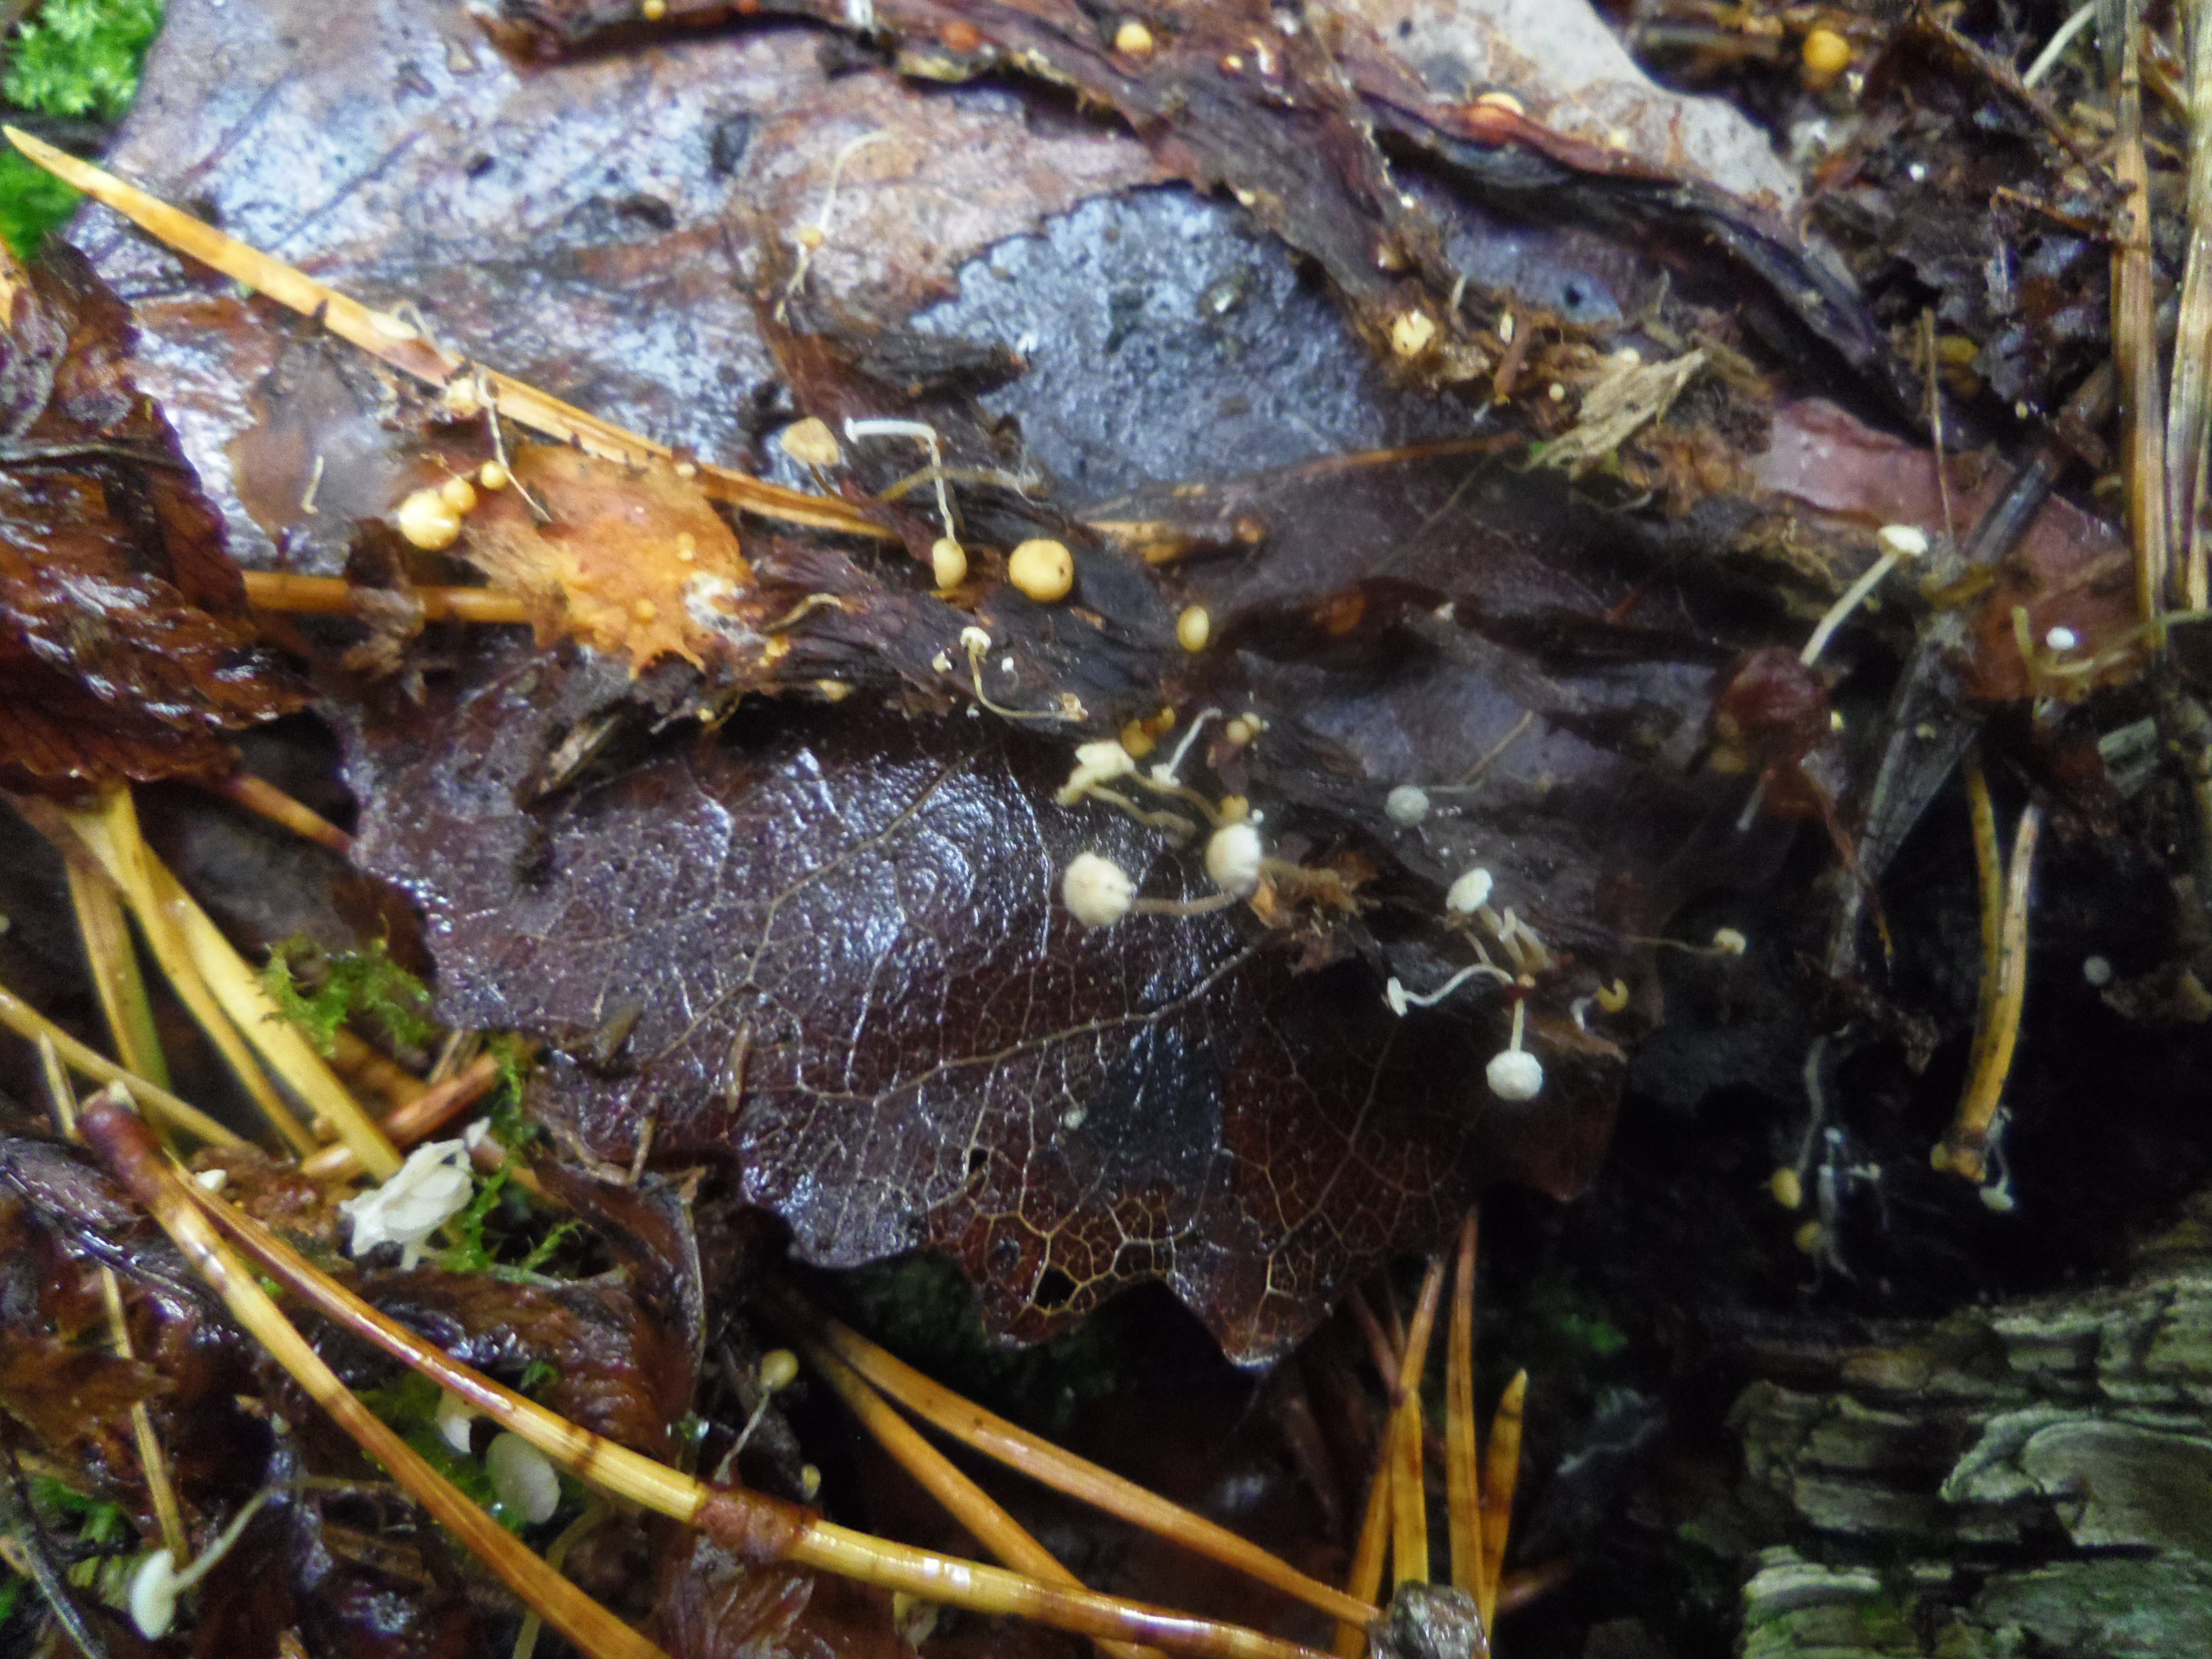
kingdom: Fungi
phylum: Basidiomycota
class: Agaricomycetes
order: Agaricales
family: Tricholomataceae
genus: Collybia
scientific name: Collybia cookei
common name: Splitpea shanklet
